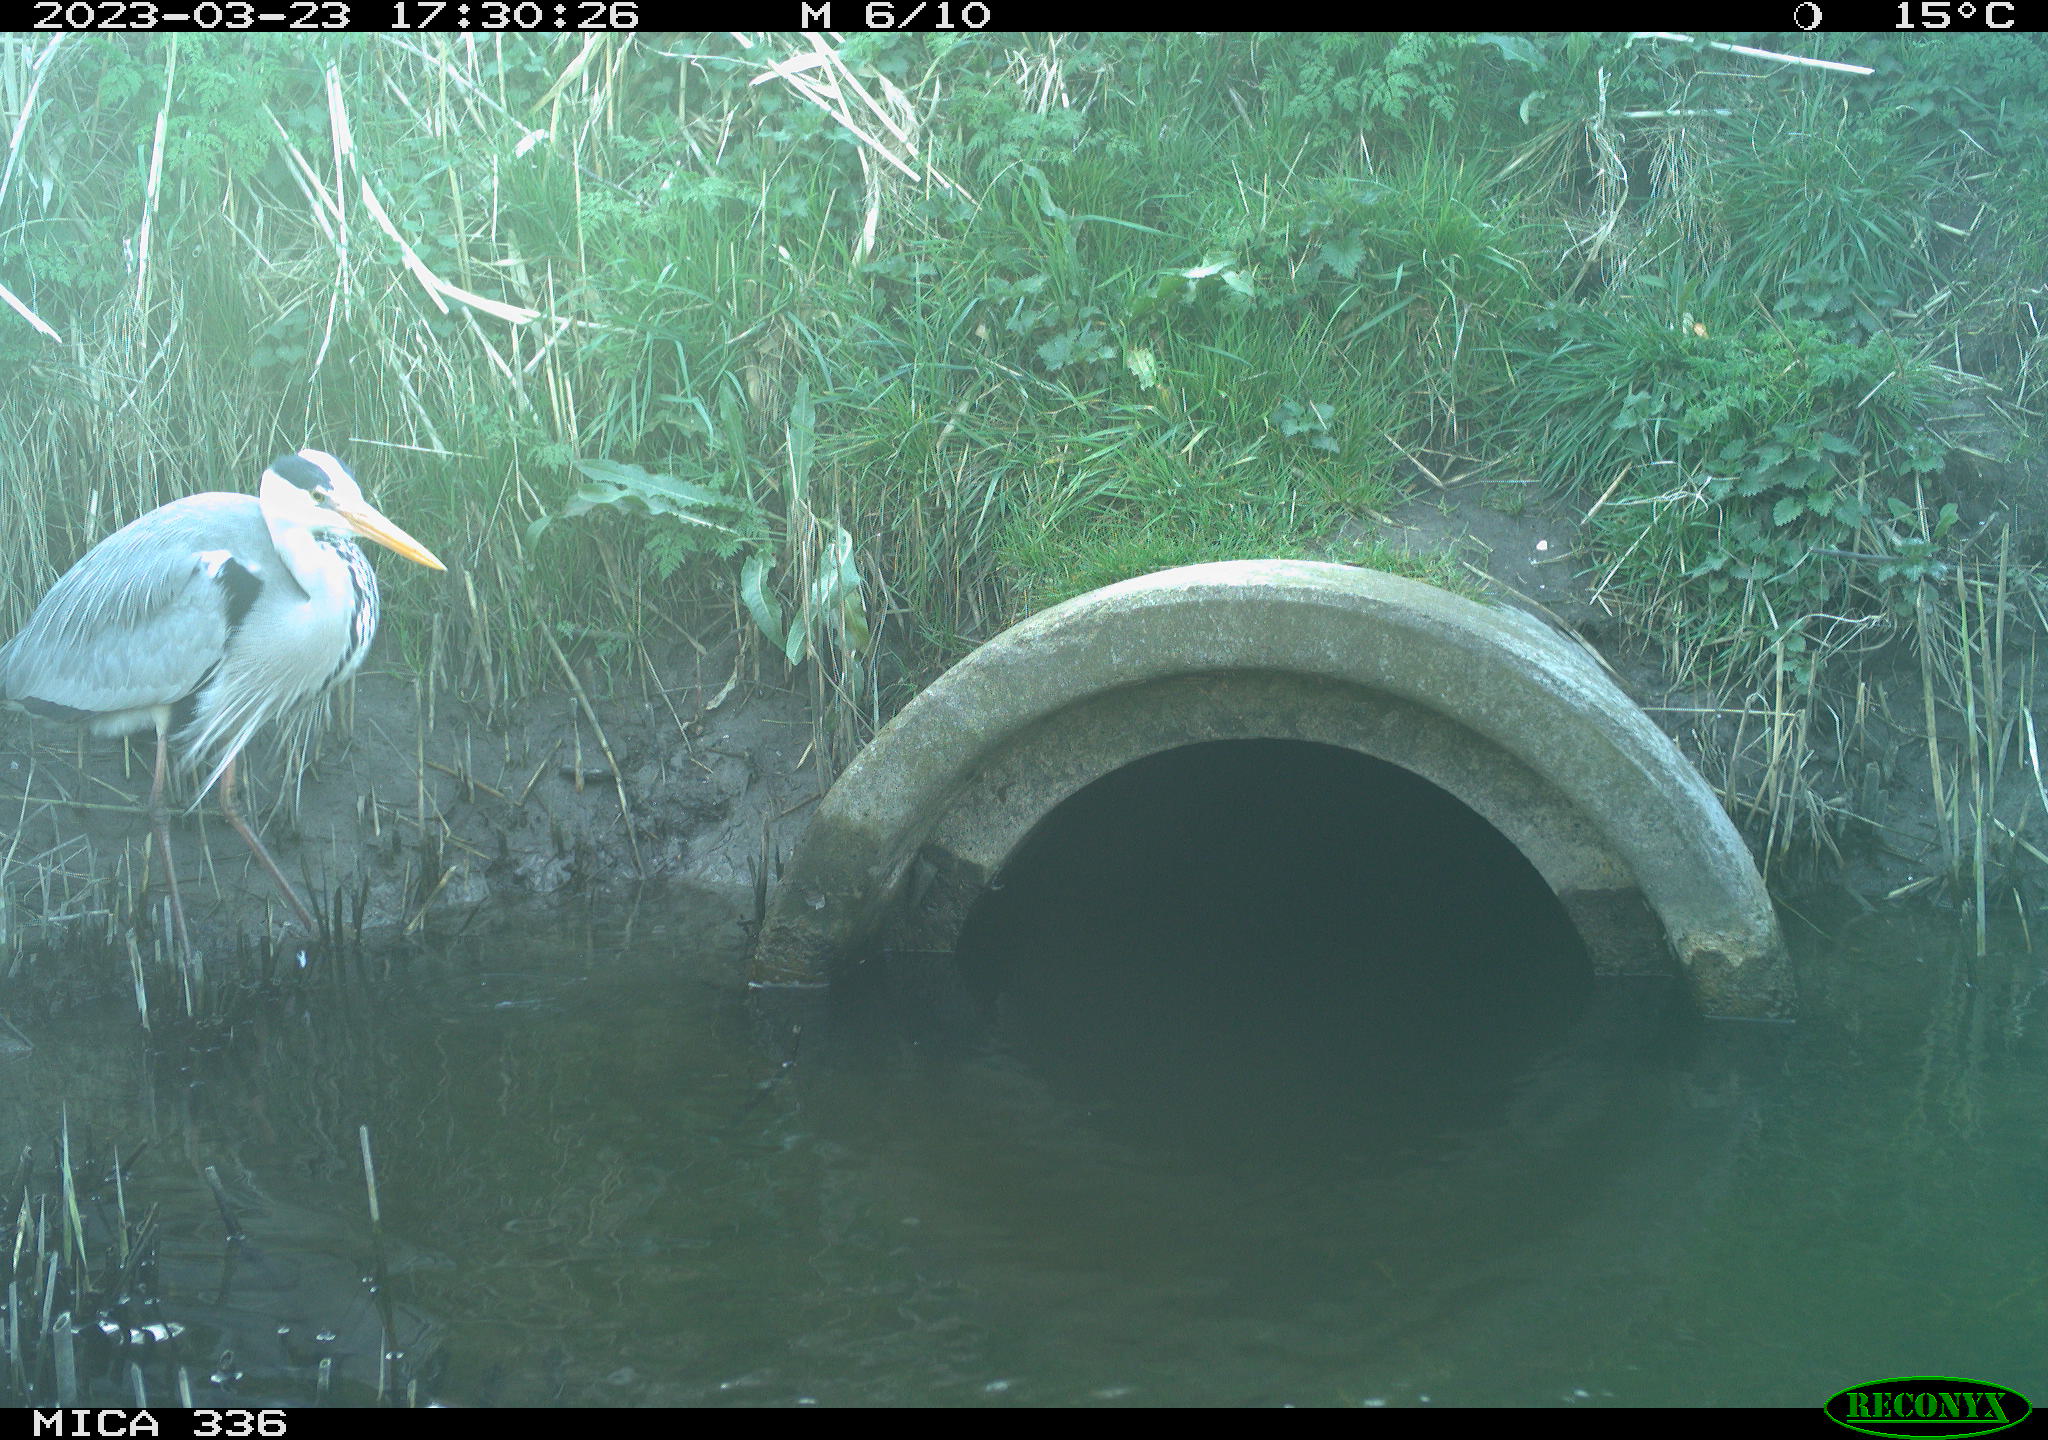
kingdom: Animalia
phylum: Chordata
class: Aves
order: Pelecaniformes
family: Ardeidae
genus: Ardea
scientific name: Ardea cinerea
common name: Grey heron
